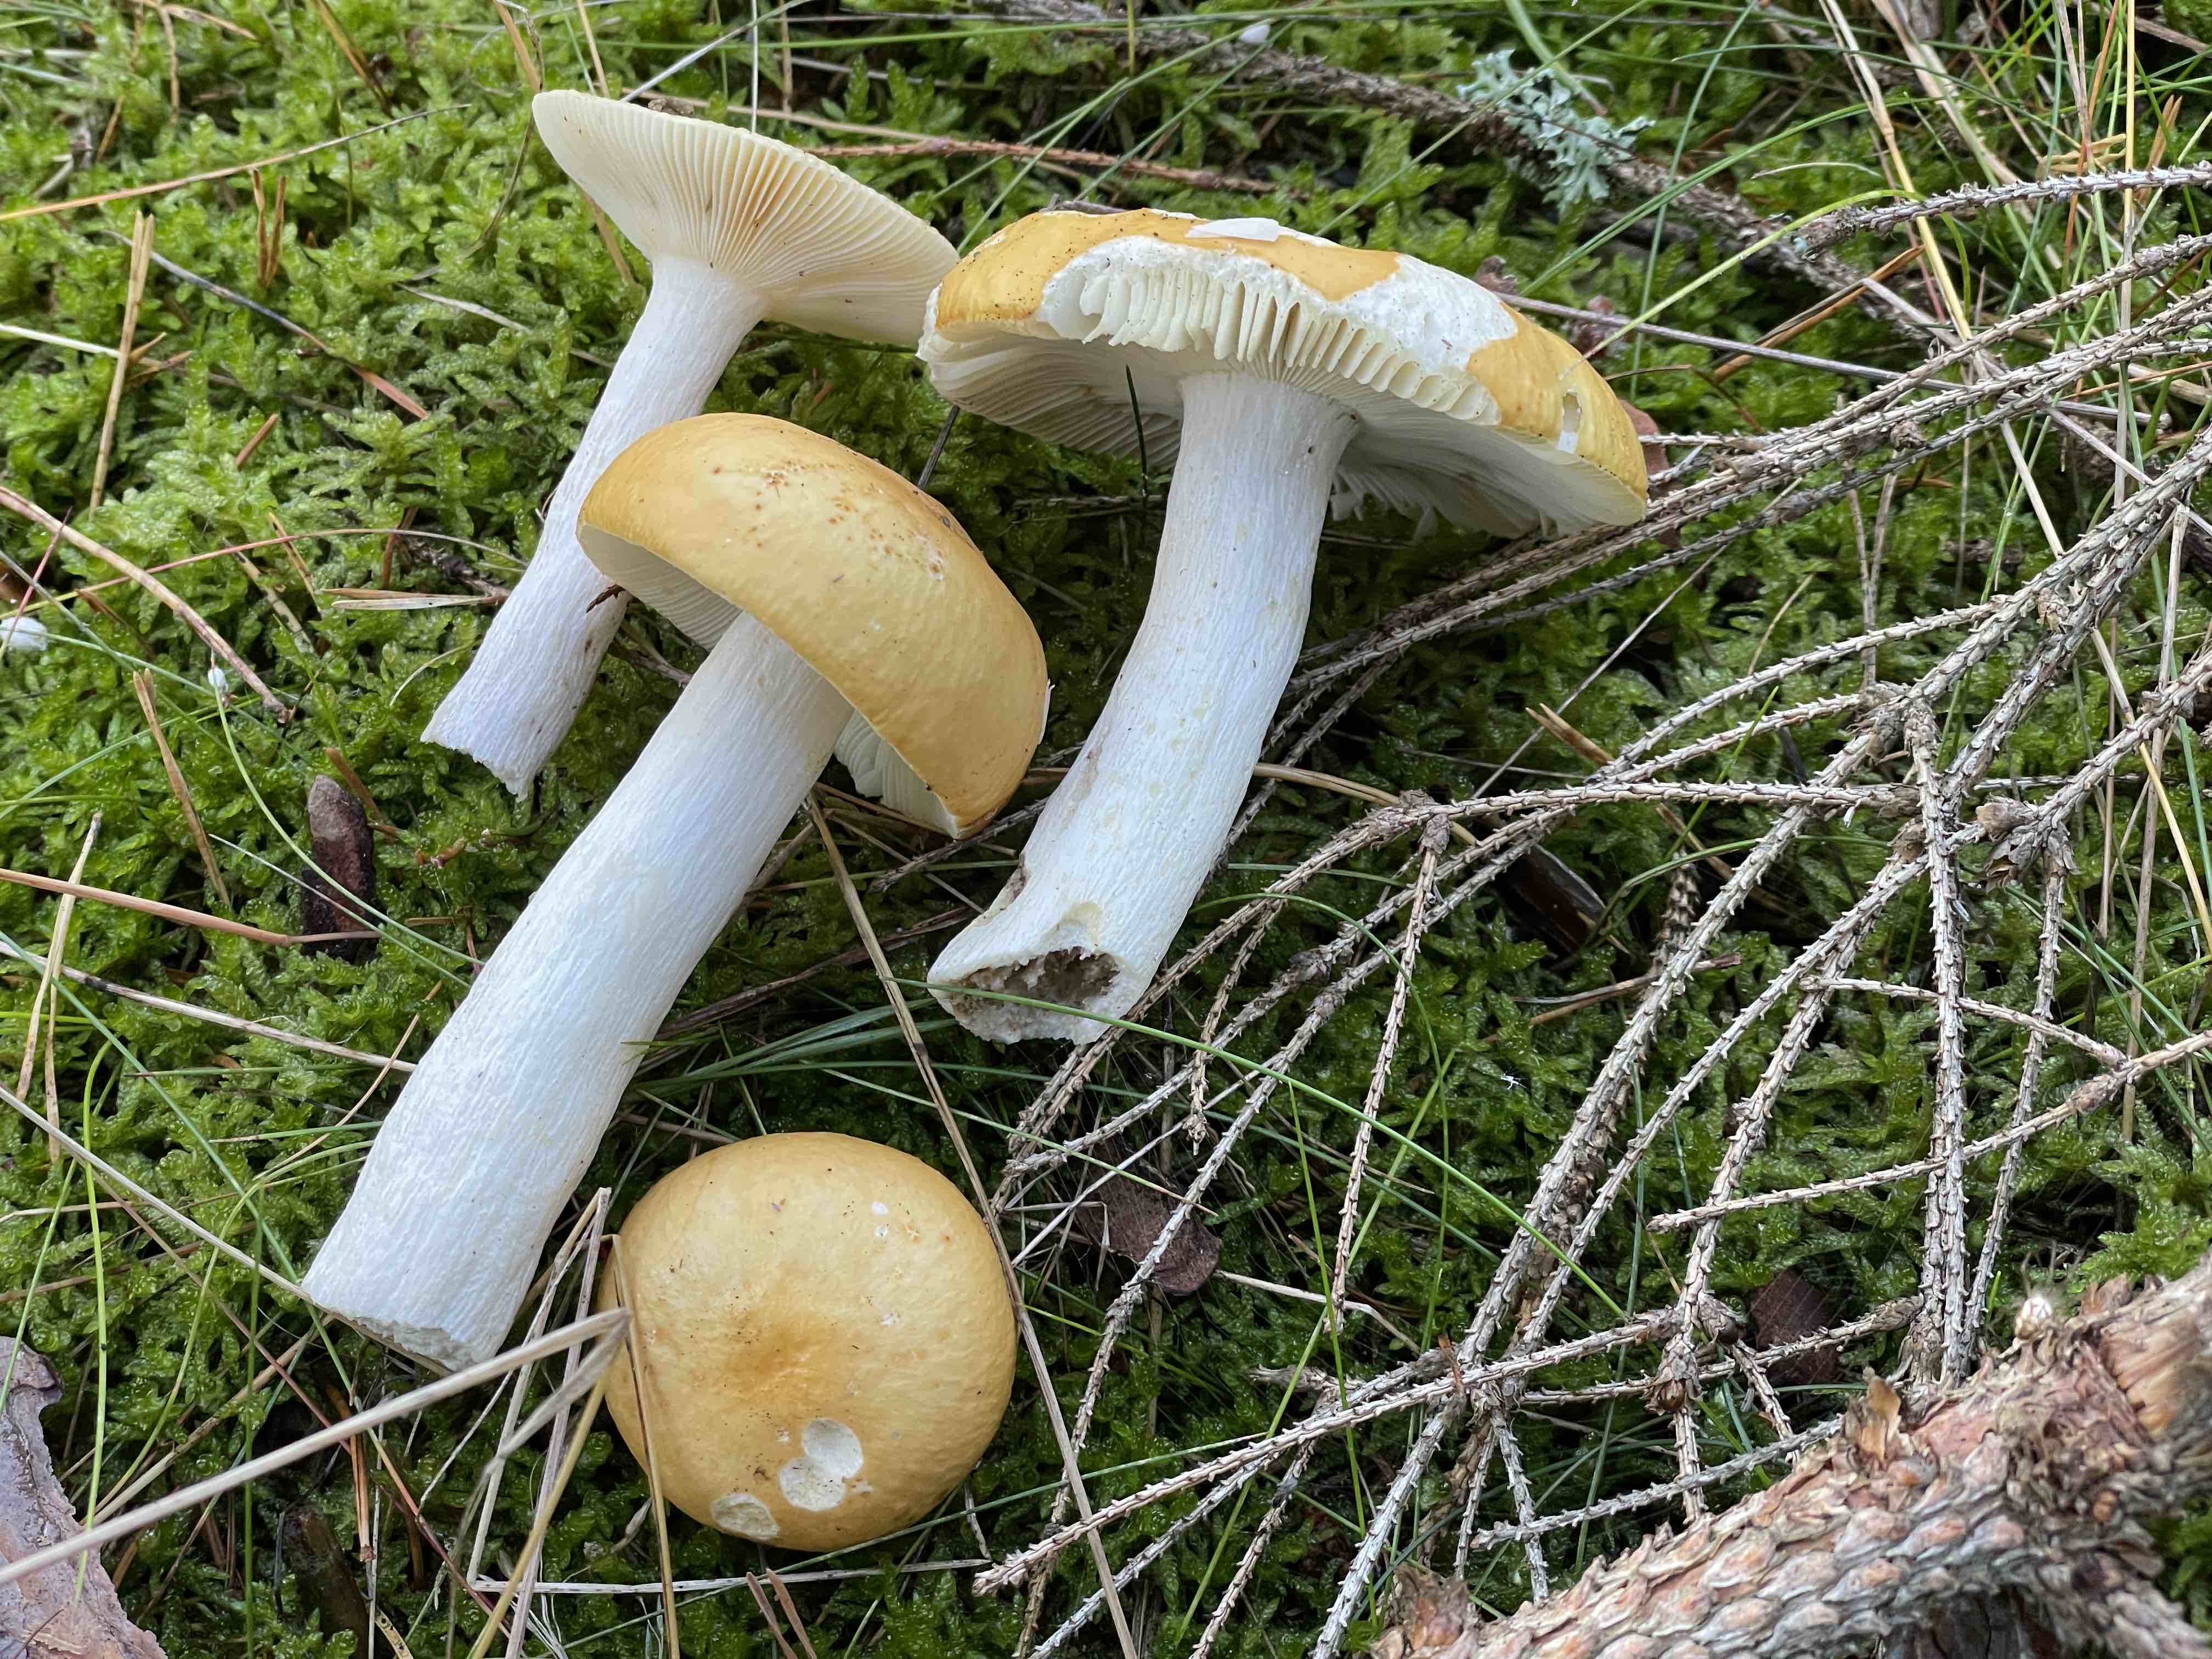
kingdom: Fungi
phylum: Basidiomycota
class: Agaricomycetes
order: Russulales
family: Russulaceae
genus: Russula
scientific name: Russula ochroleuca
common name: okkergul skørhat
